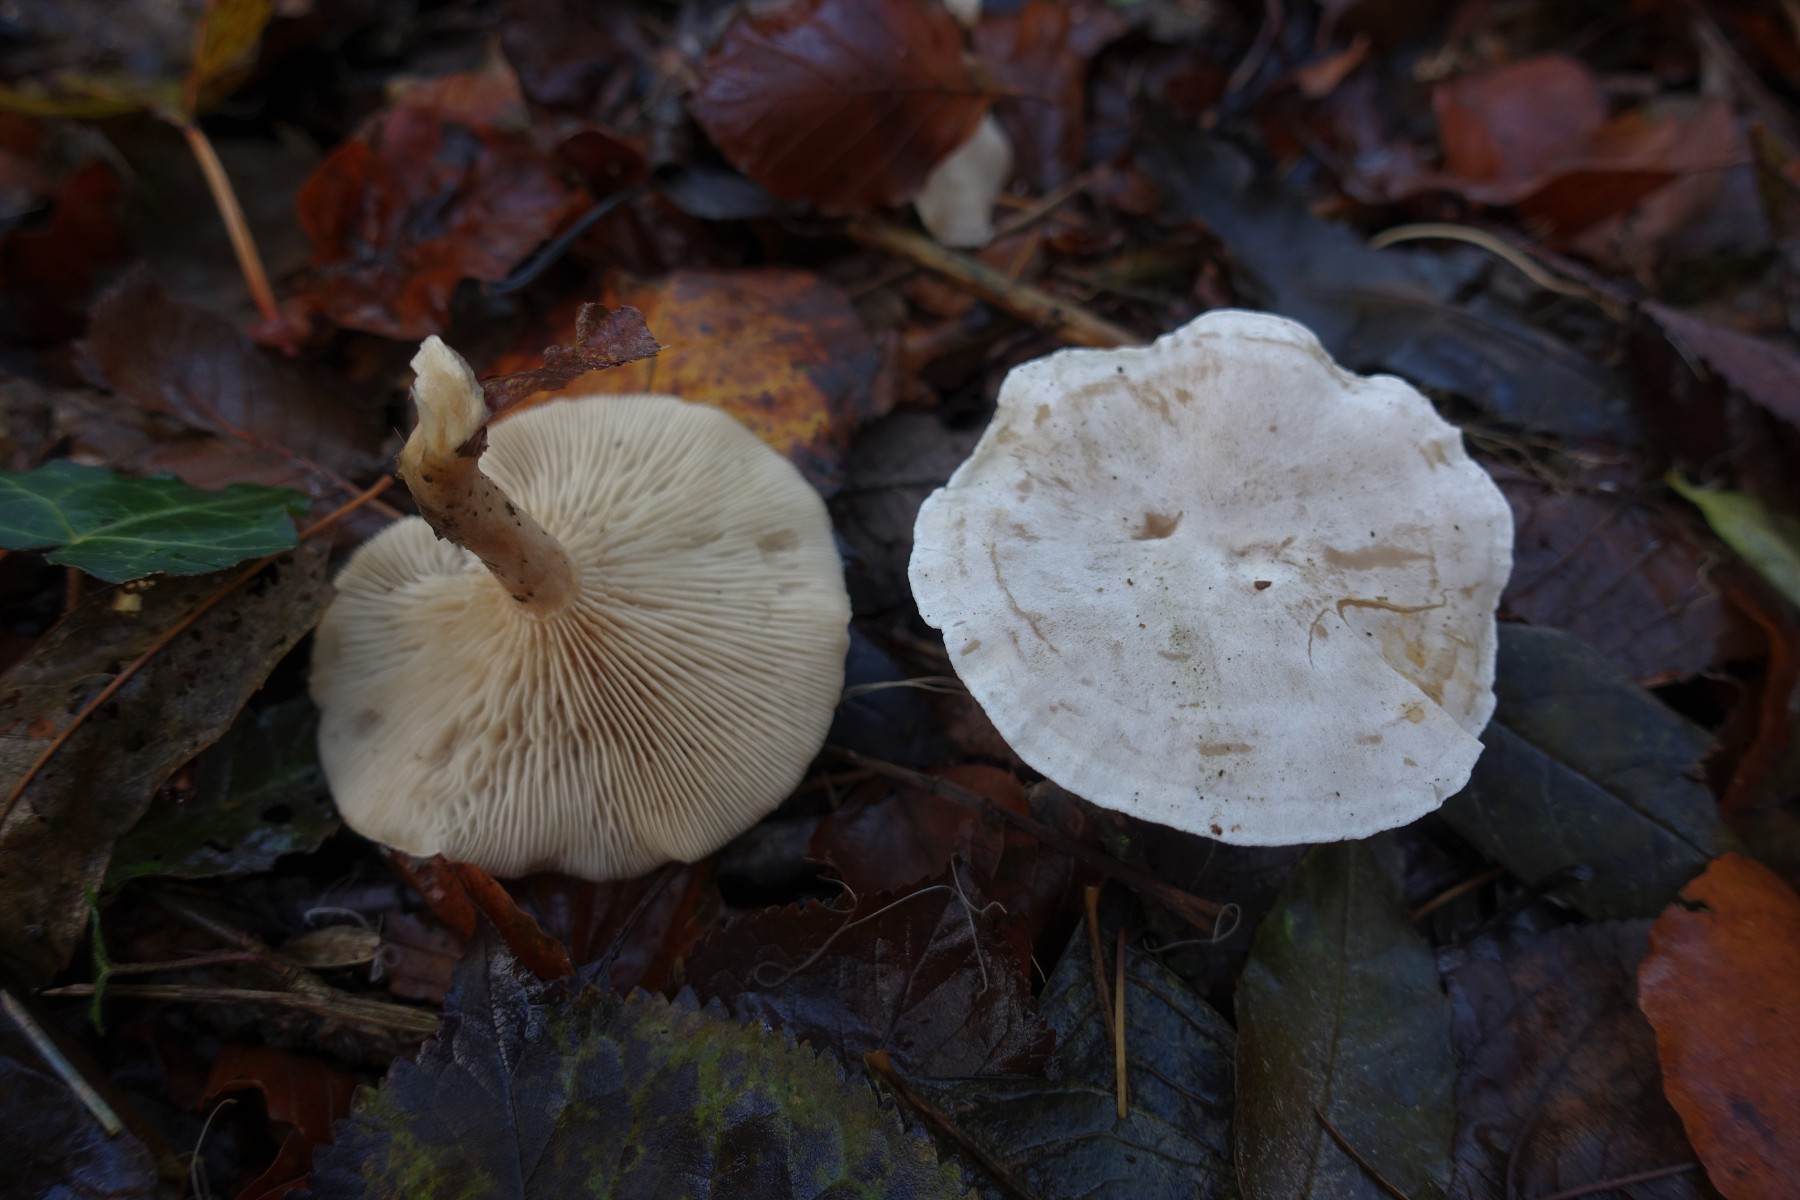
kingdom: Fungi
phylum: Basidiomycota
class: Agaricomycetes
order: Agaricales
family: Tricholomataceae
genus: Clitocybe
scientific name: Clitocybe phyllophila
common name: løv-tragthat
